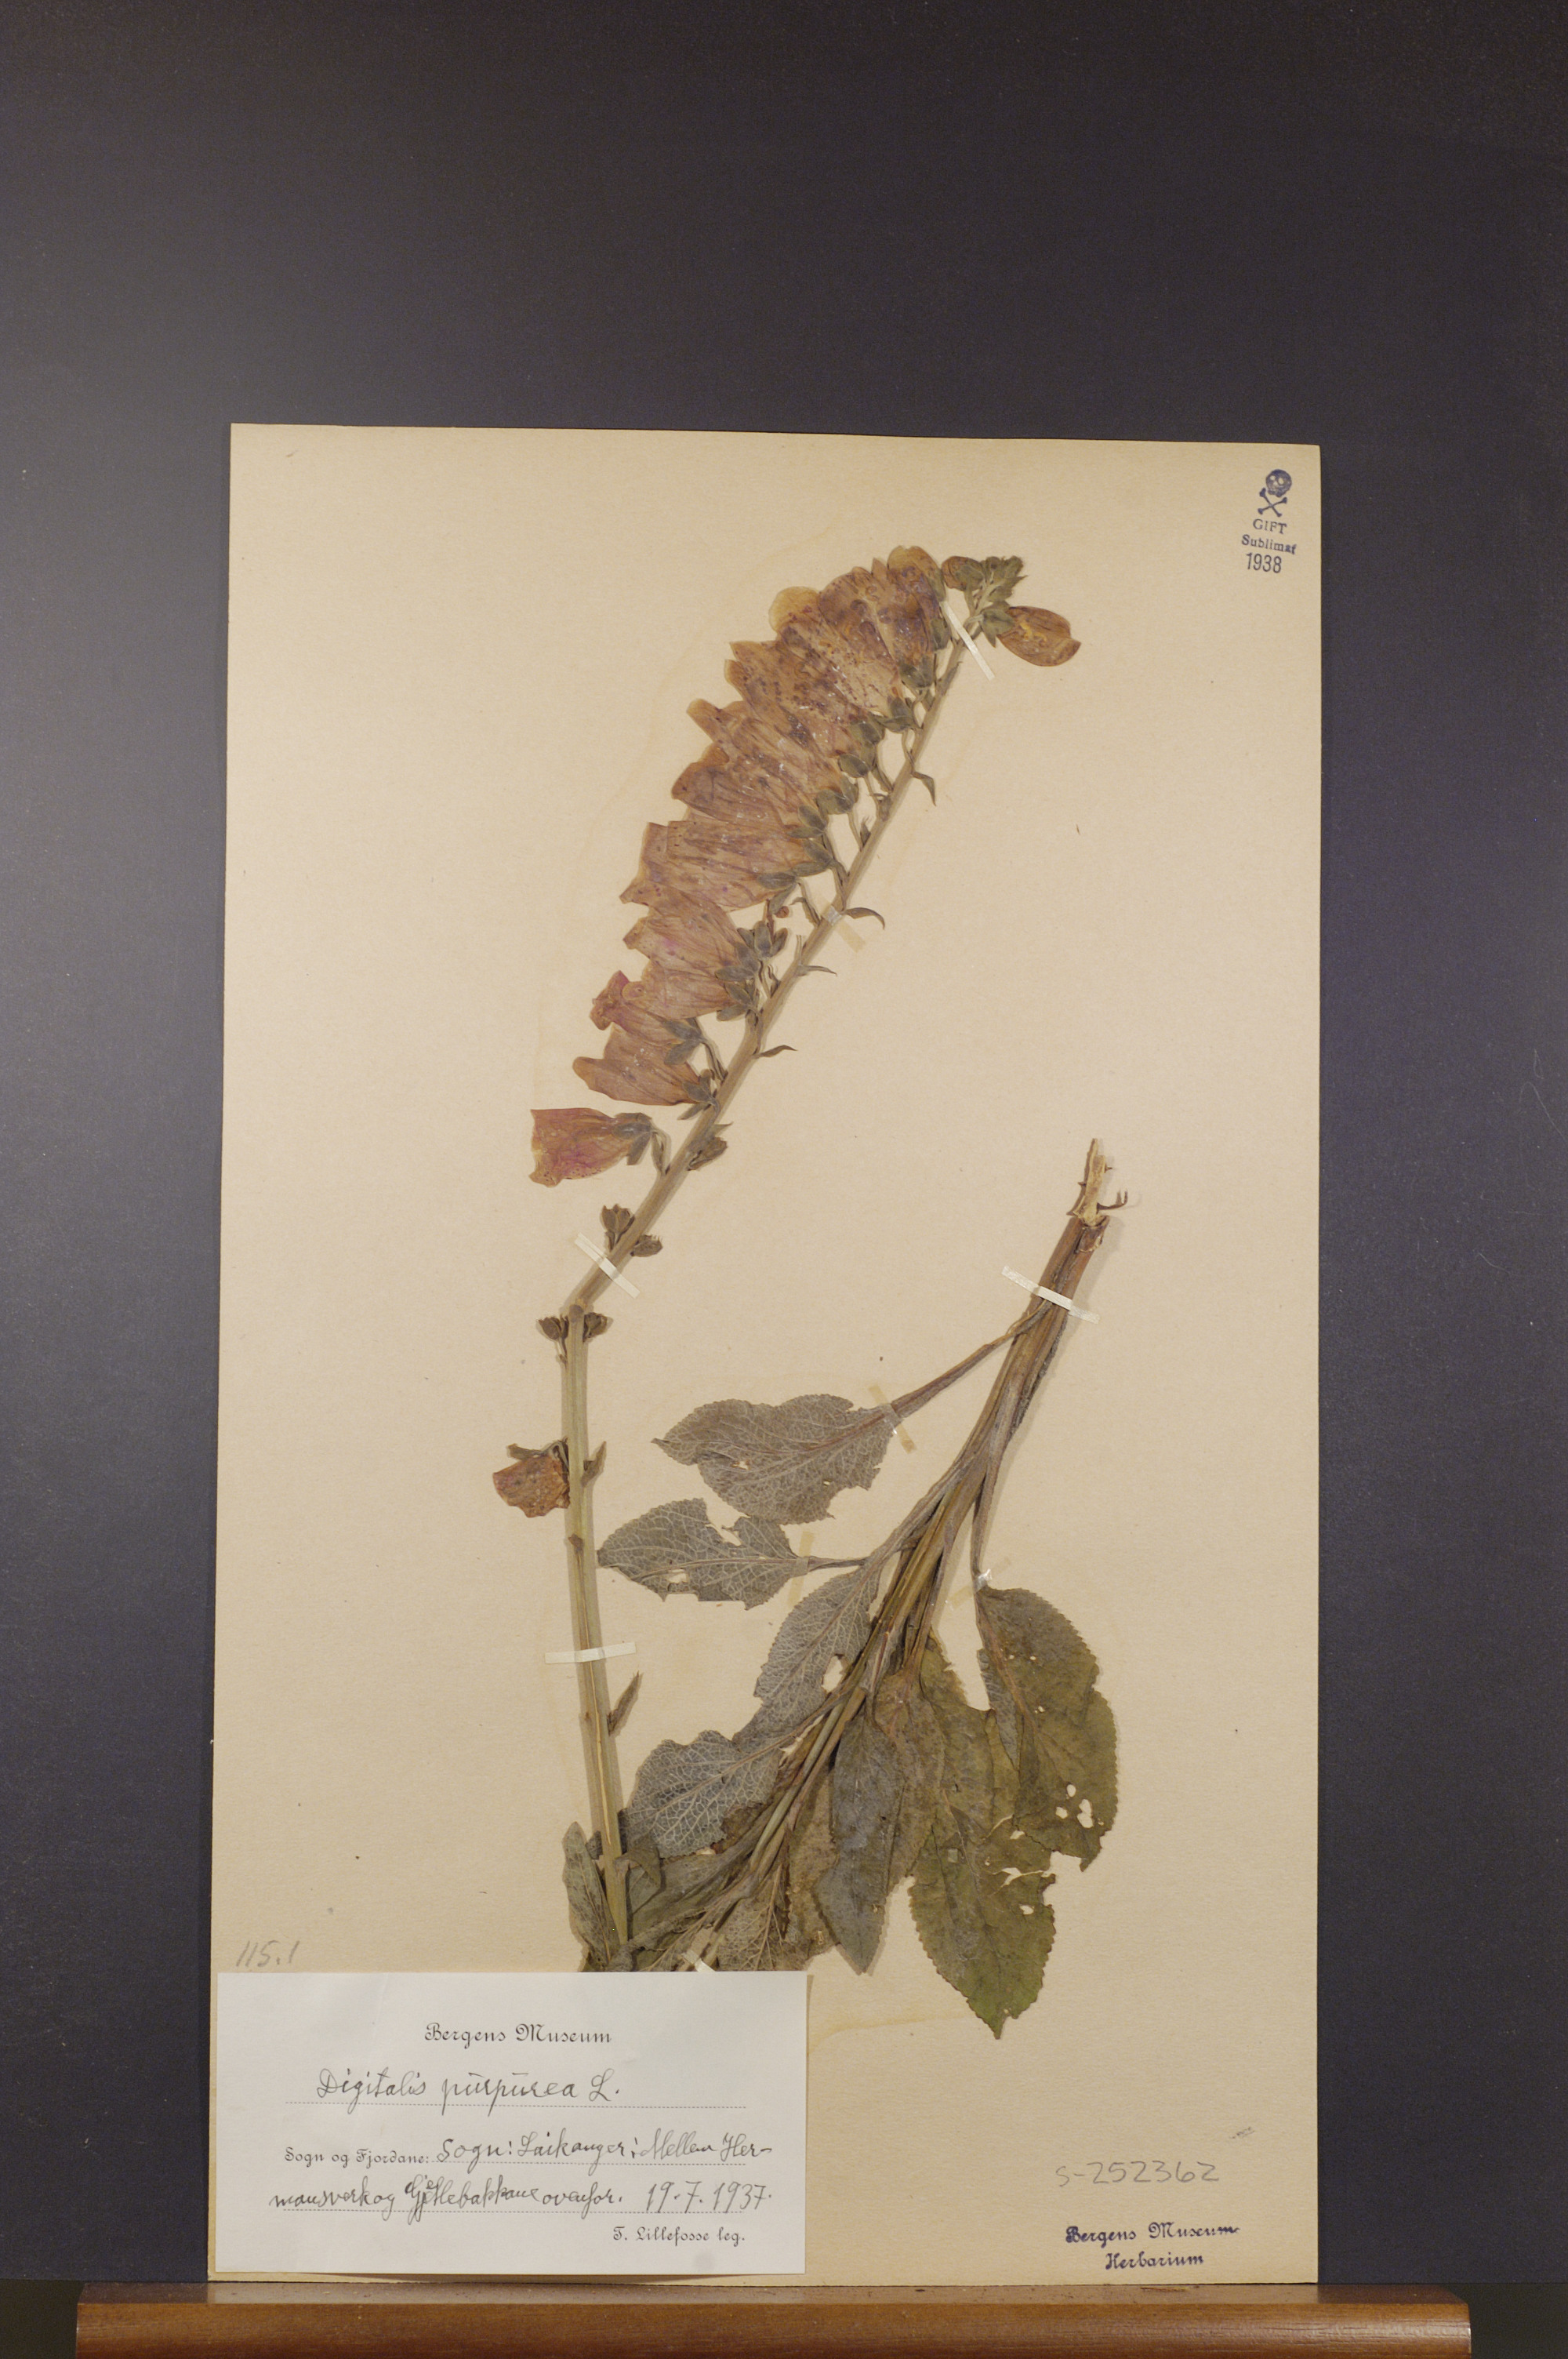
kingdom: Plantae
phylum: Tracheophyta
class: Magnoliopsida
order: Lamiales
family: Plantaginaceae
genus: Digitalis
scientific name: Digitalis purpurea
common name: Foxglove
